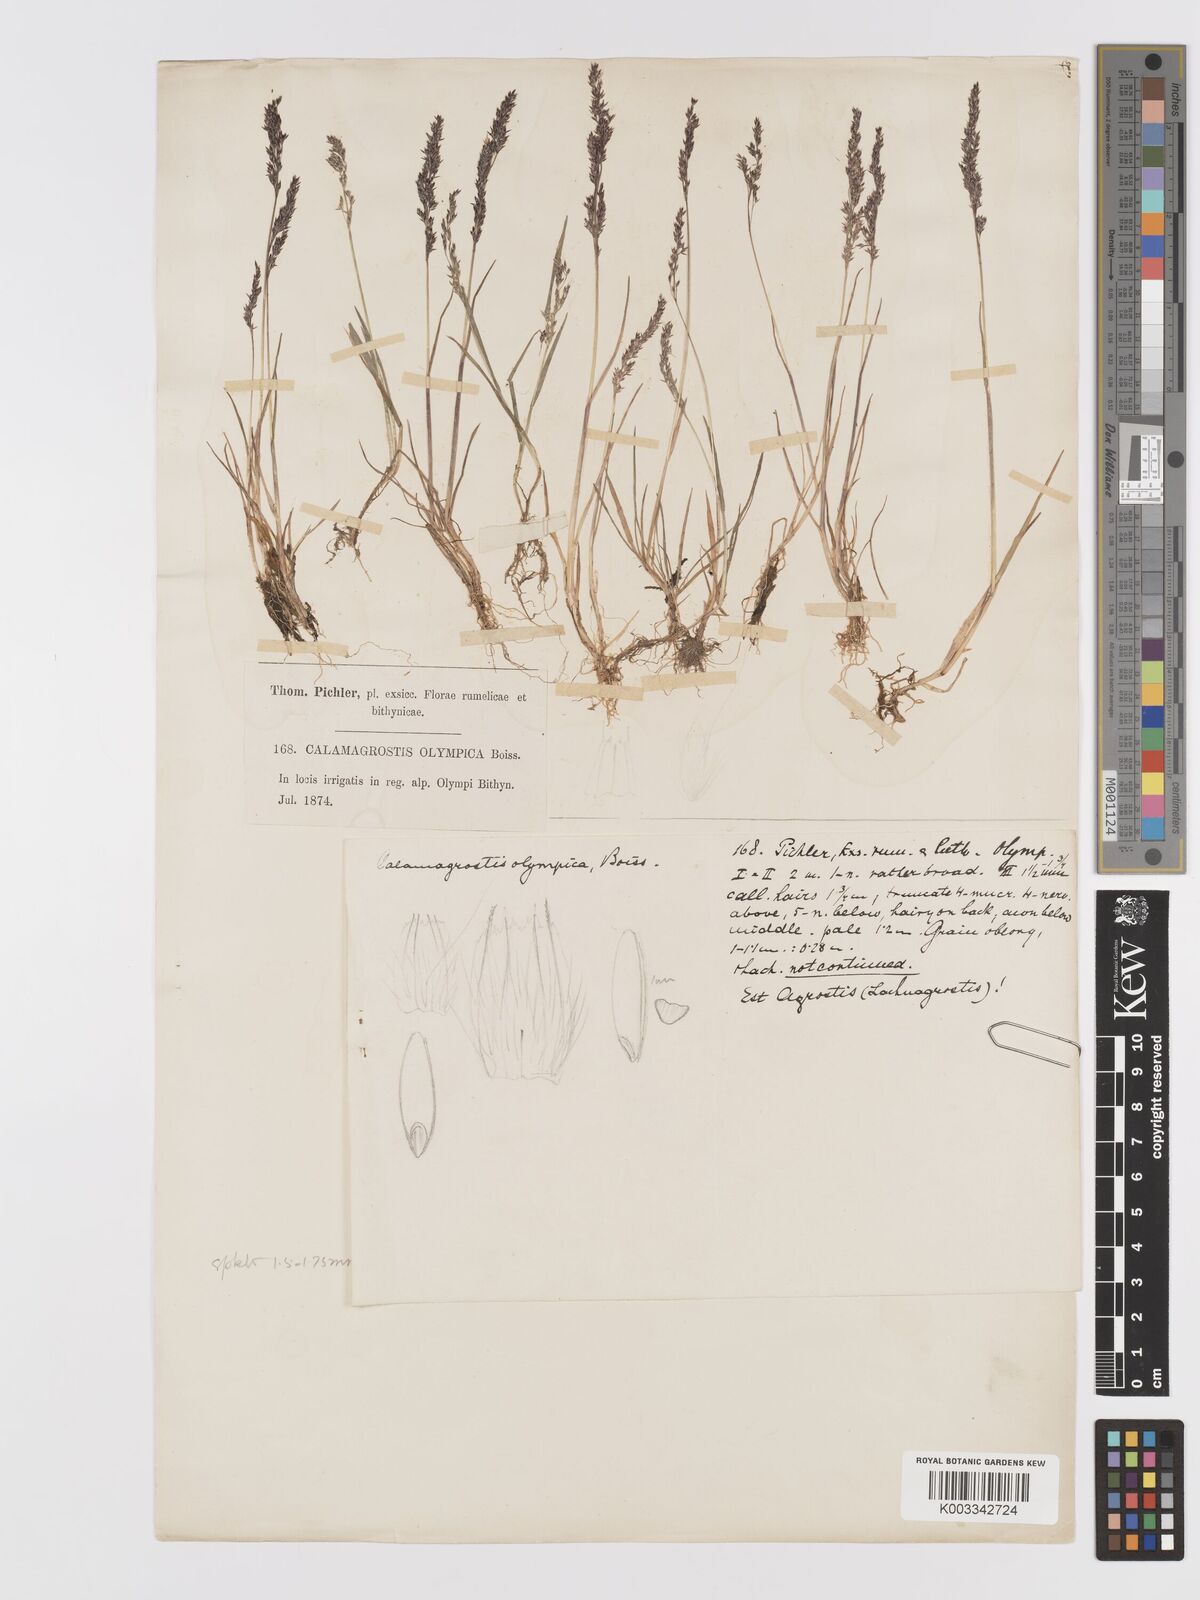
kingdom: Plantae
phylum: Tracheophyta
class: Liliopsida
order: Poales
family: Poaceae
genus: Agrostis
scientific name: Agrostis olympica
